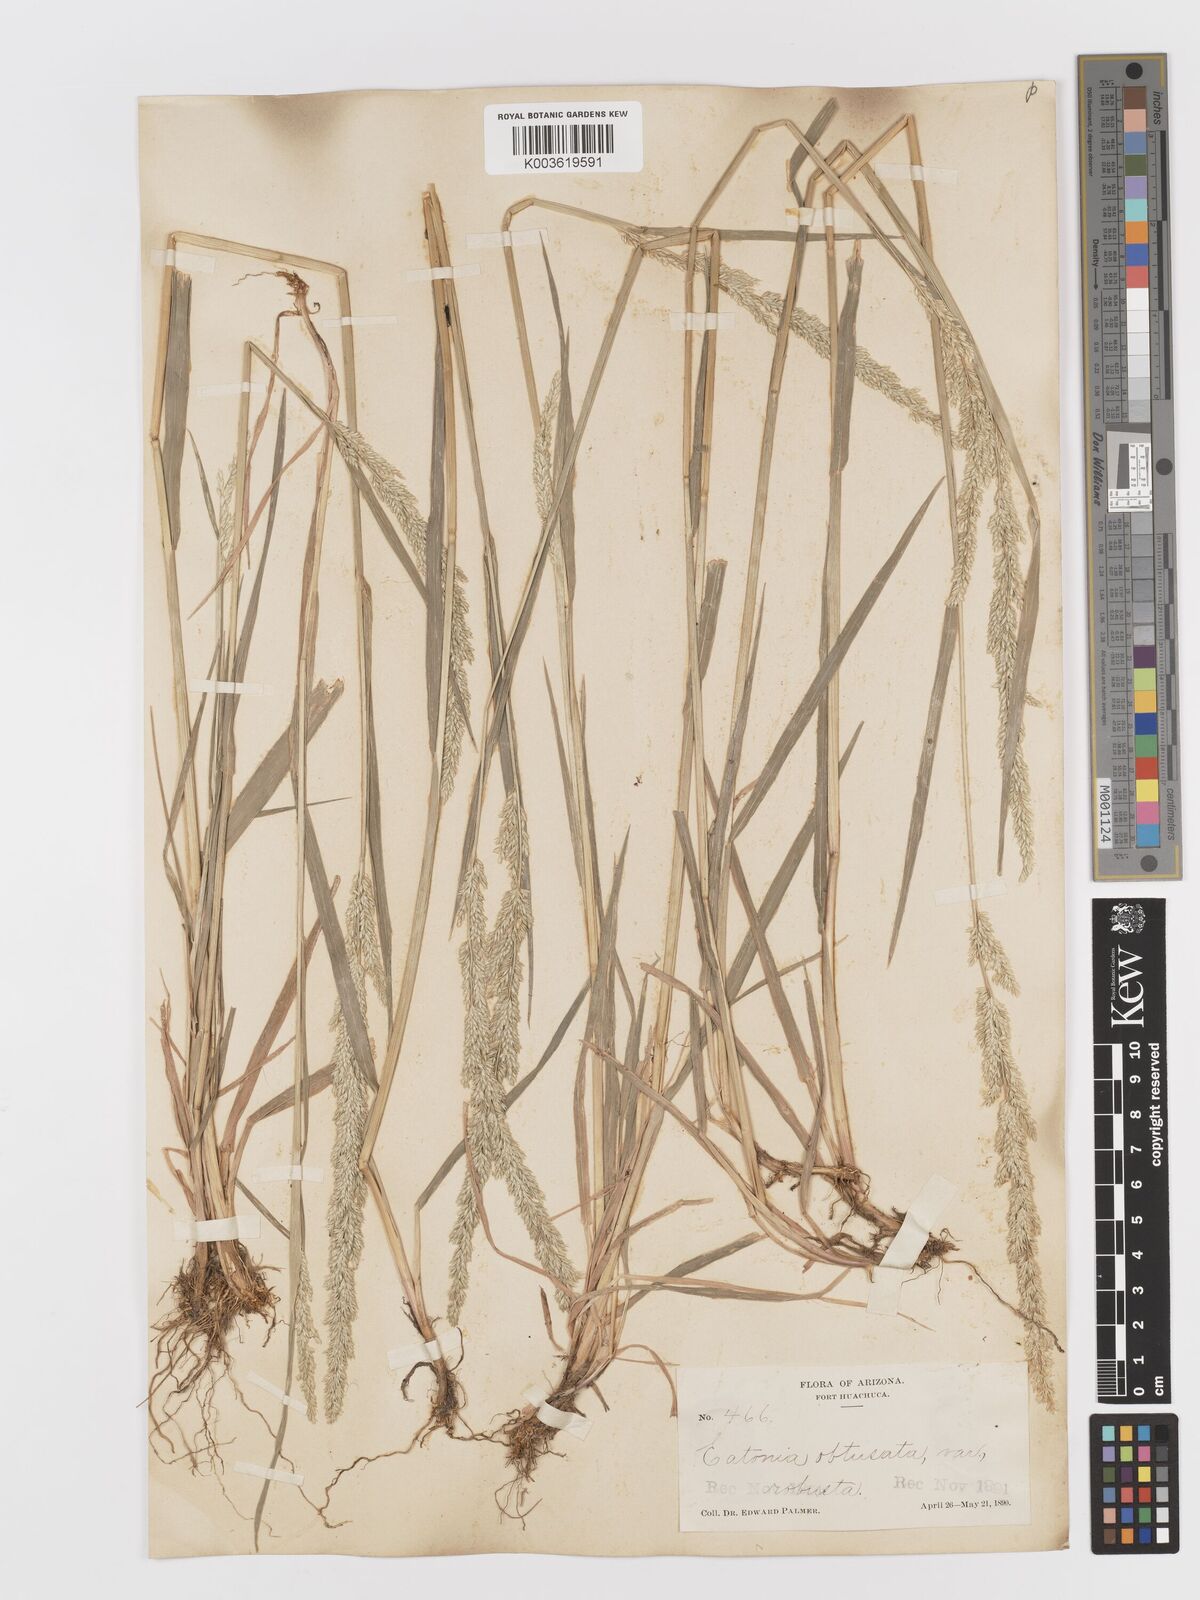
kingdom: Plantae
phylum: Tracheophyta
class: Liliopsida
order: Poales
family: Poaceae
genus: Sphenopholis
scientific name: Sphenopholis obtusata
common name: Prairie grass
